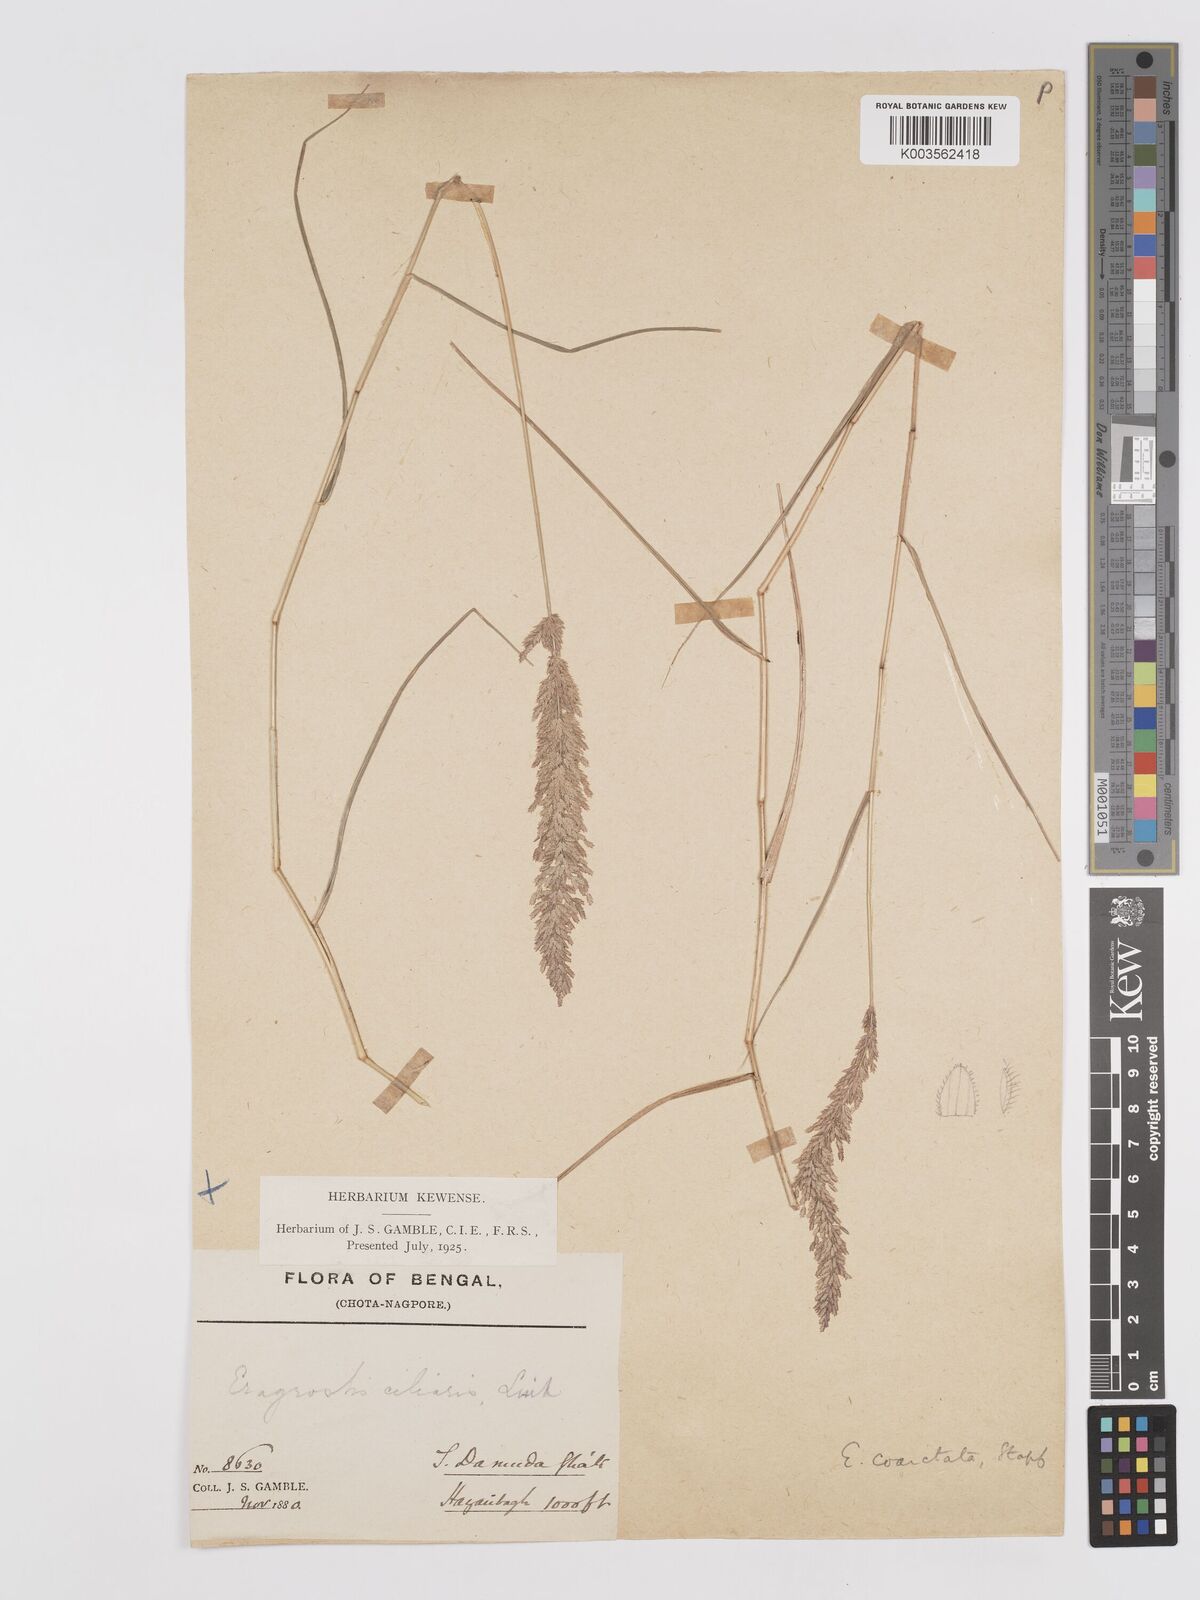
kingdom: Plantae
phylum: Tracheophyta
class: Liliopsida
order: Poales
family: Poaceae
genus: Eragrostis
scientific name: Eragrostis coarctata
